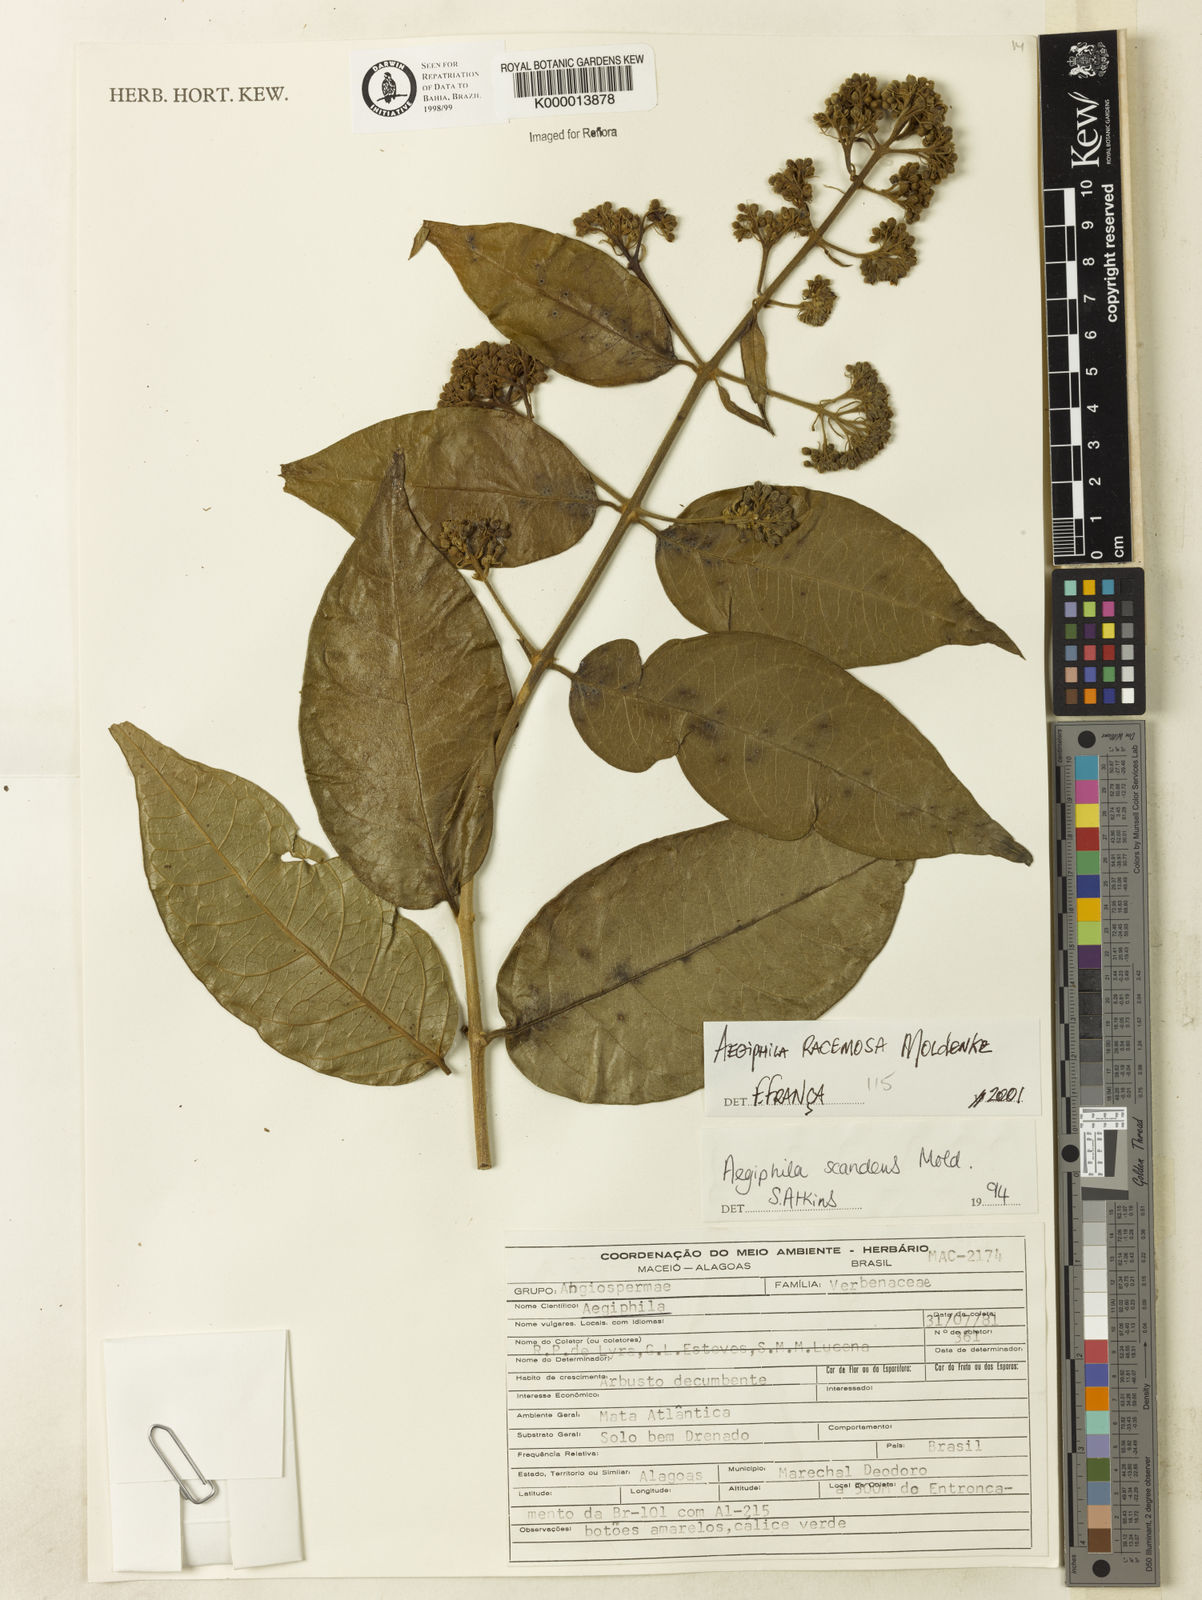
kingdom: Plantae
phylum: Tracheophyta
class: Magnoliopsida
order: Lamiales
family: Lamiaceae
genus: Aegiphila
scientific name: Aegiphila scandens
